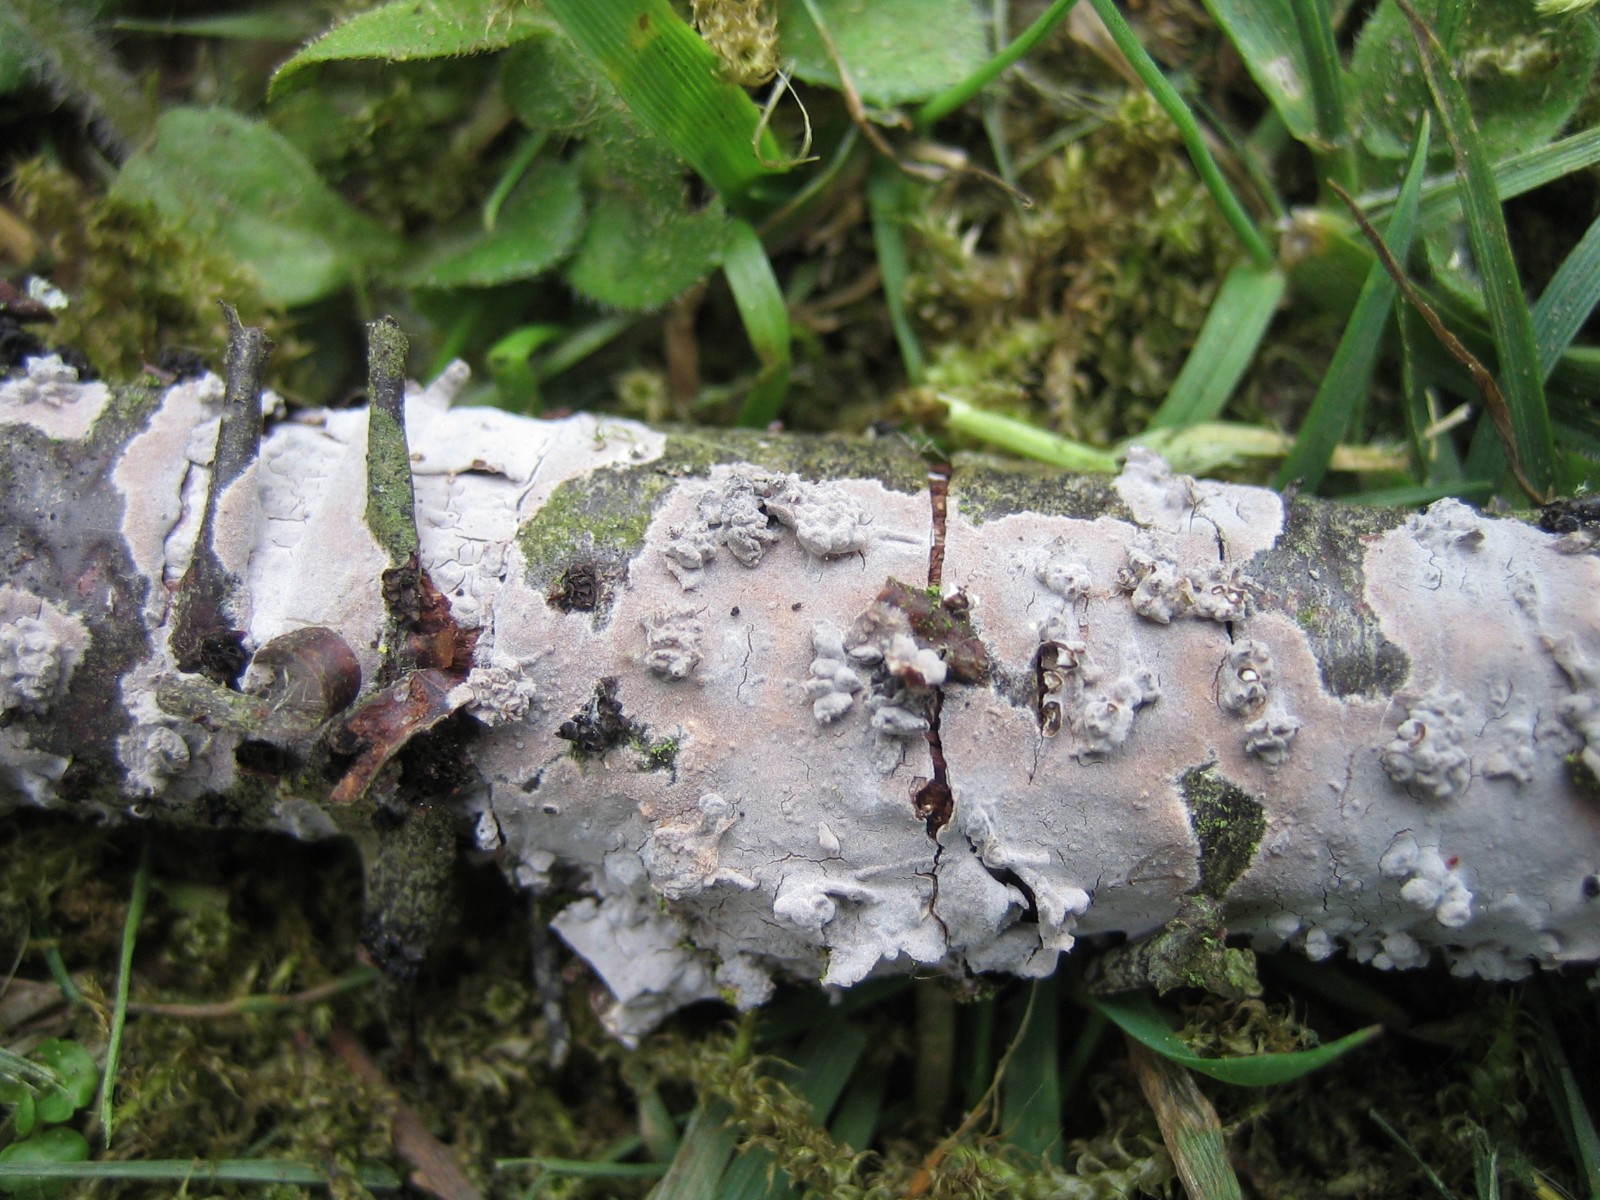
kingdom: Fungi
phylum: Basidiomycota
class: Agaricomycetes
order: Russulales
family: Peniophoraceae
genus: Peniophora
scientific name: Peniophora
